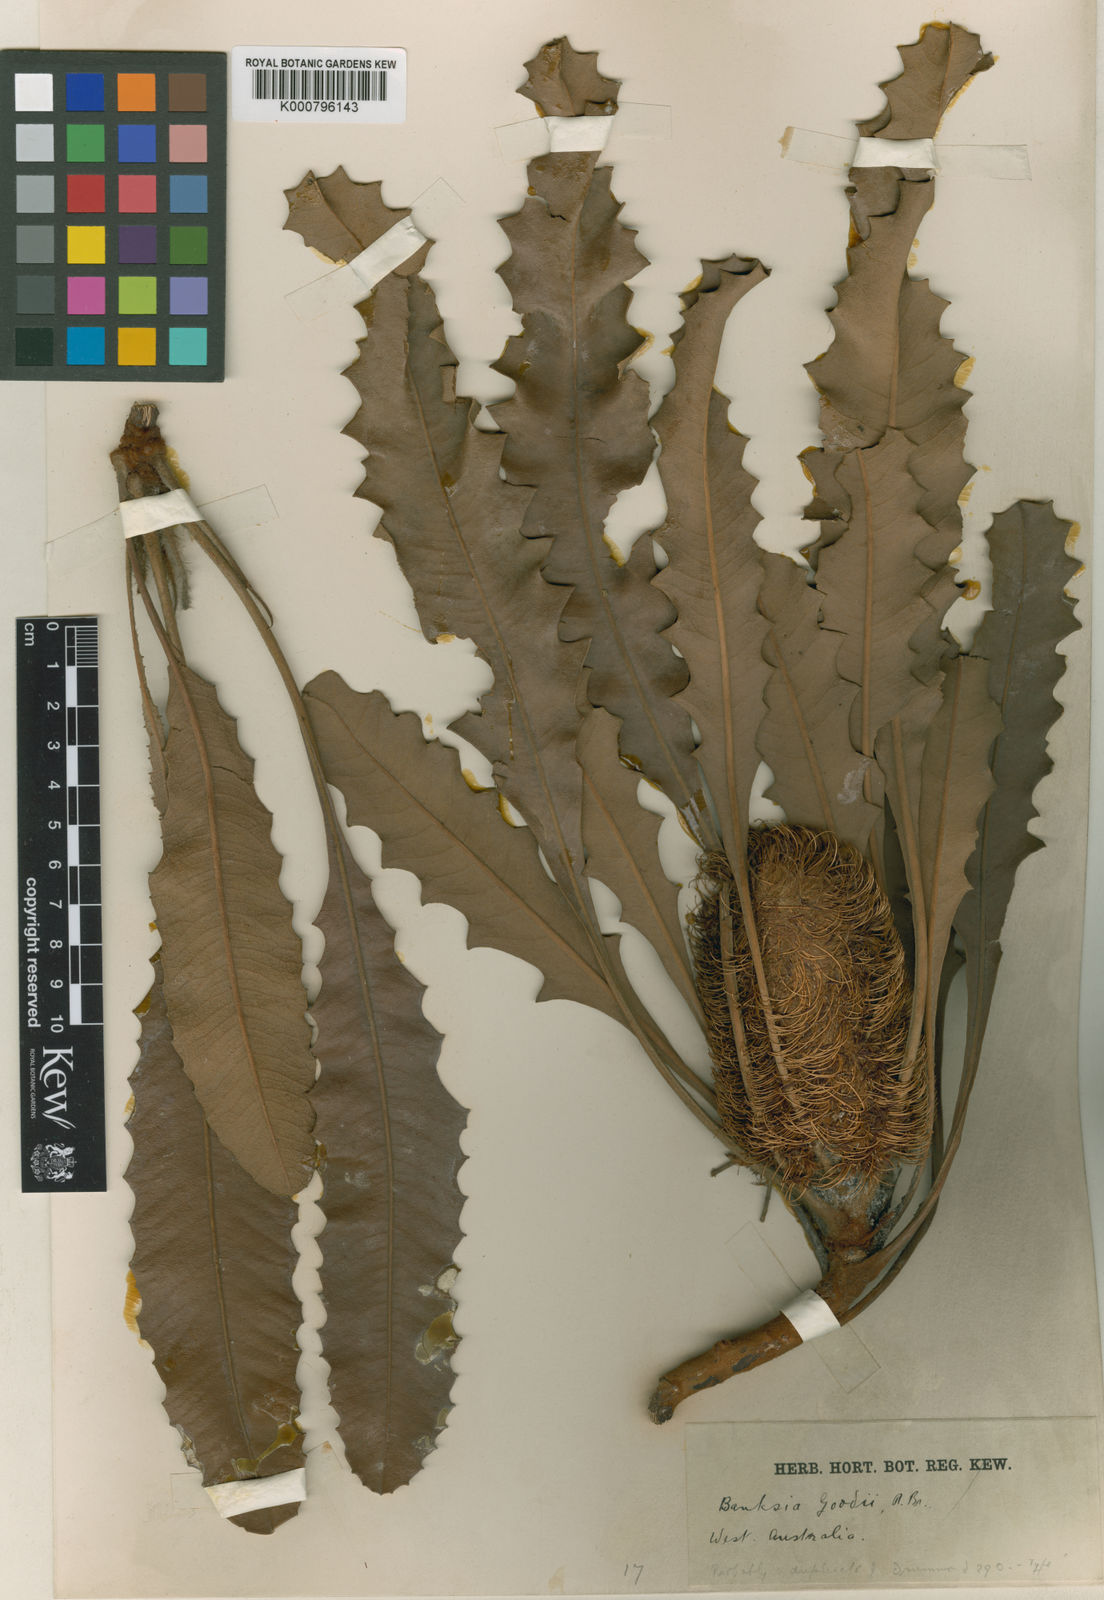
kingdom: Plantae
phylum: Tracheophyta
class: Magnoliopsida
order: Proteales
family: Proteaceae
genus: Banksia
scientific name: Banksia goodii
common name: Good’s banksia
